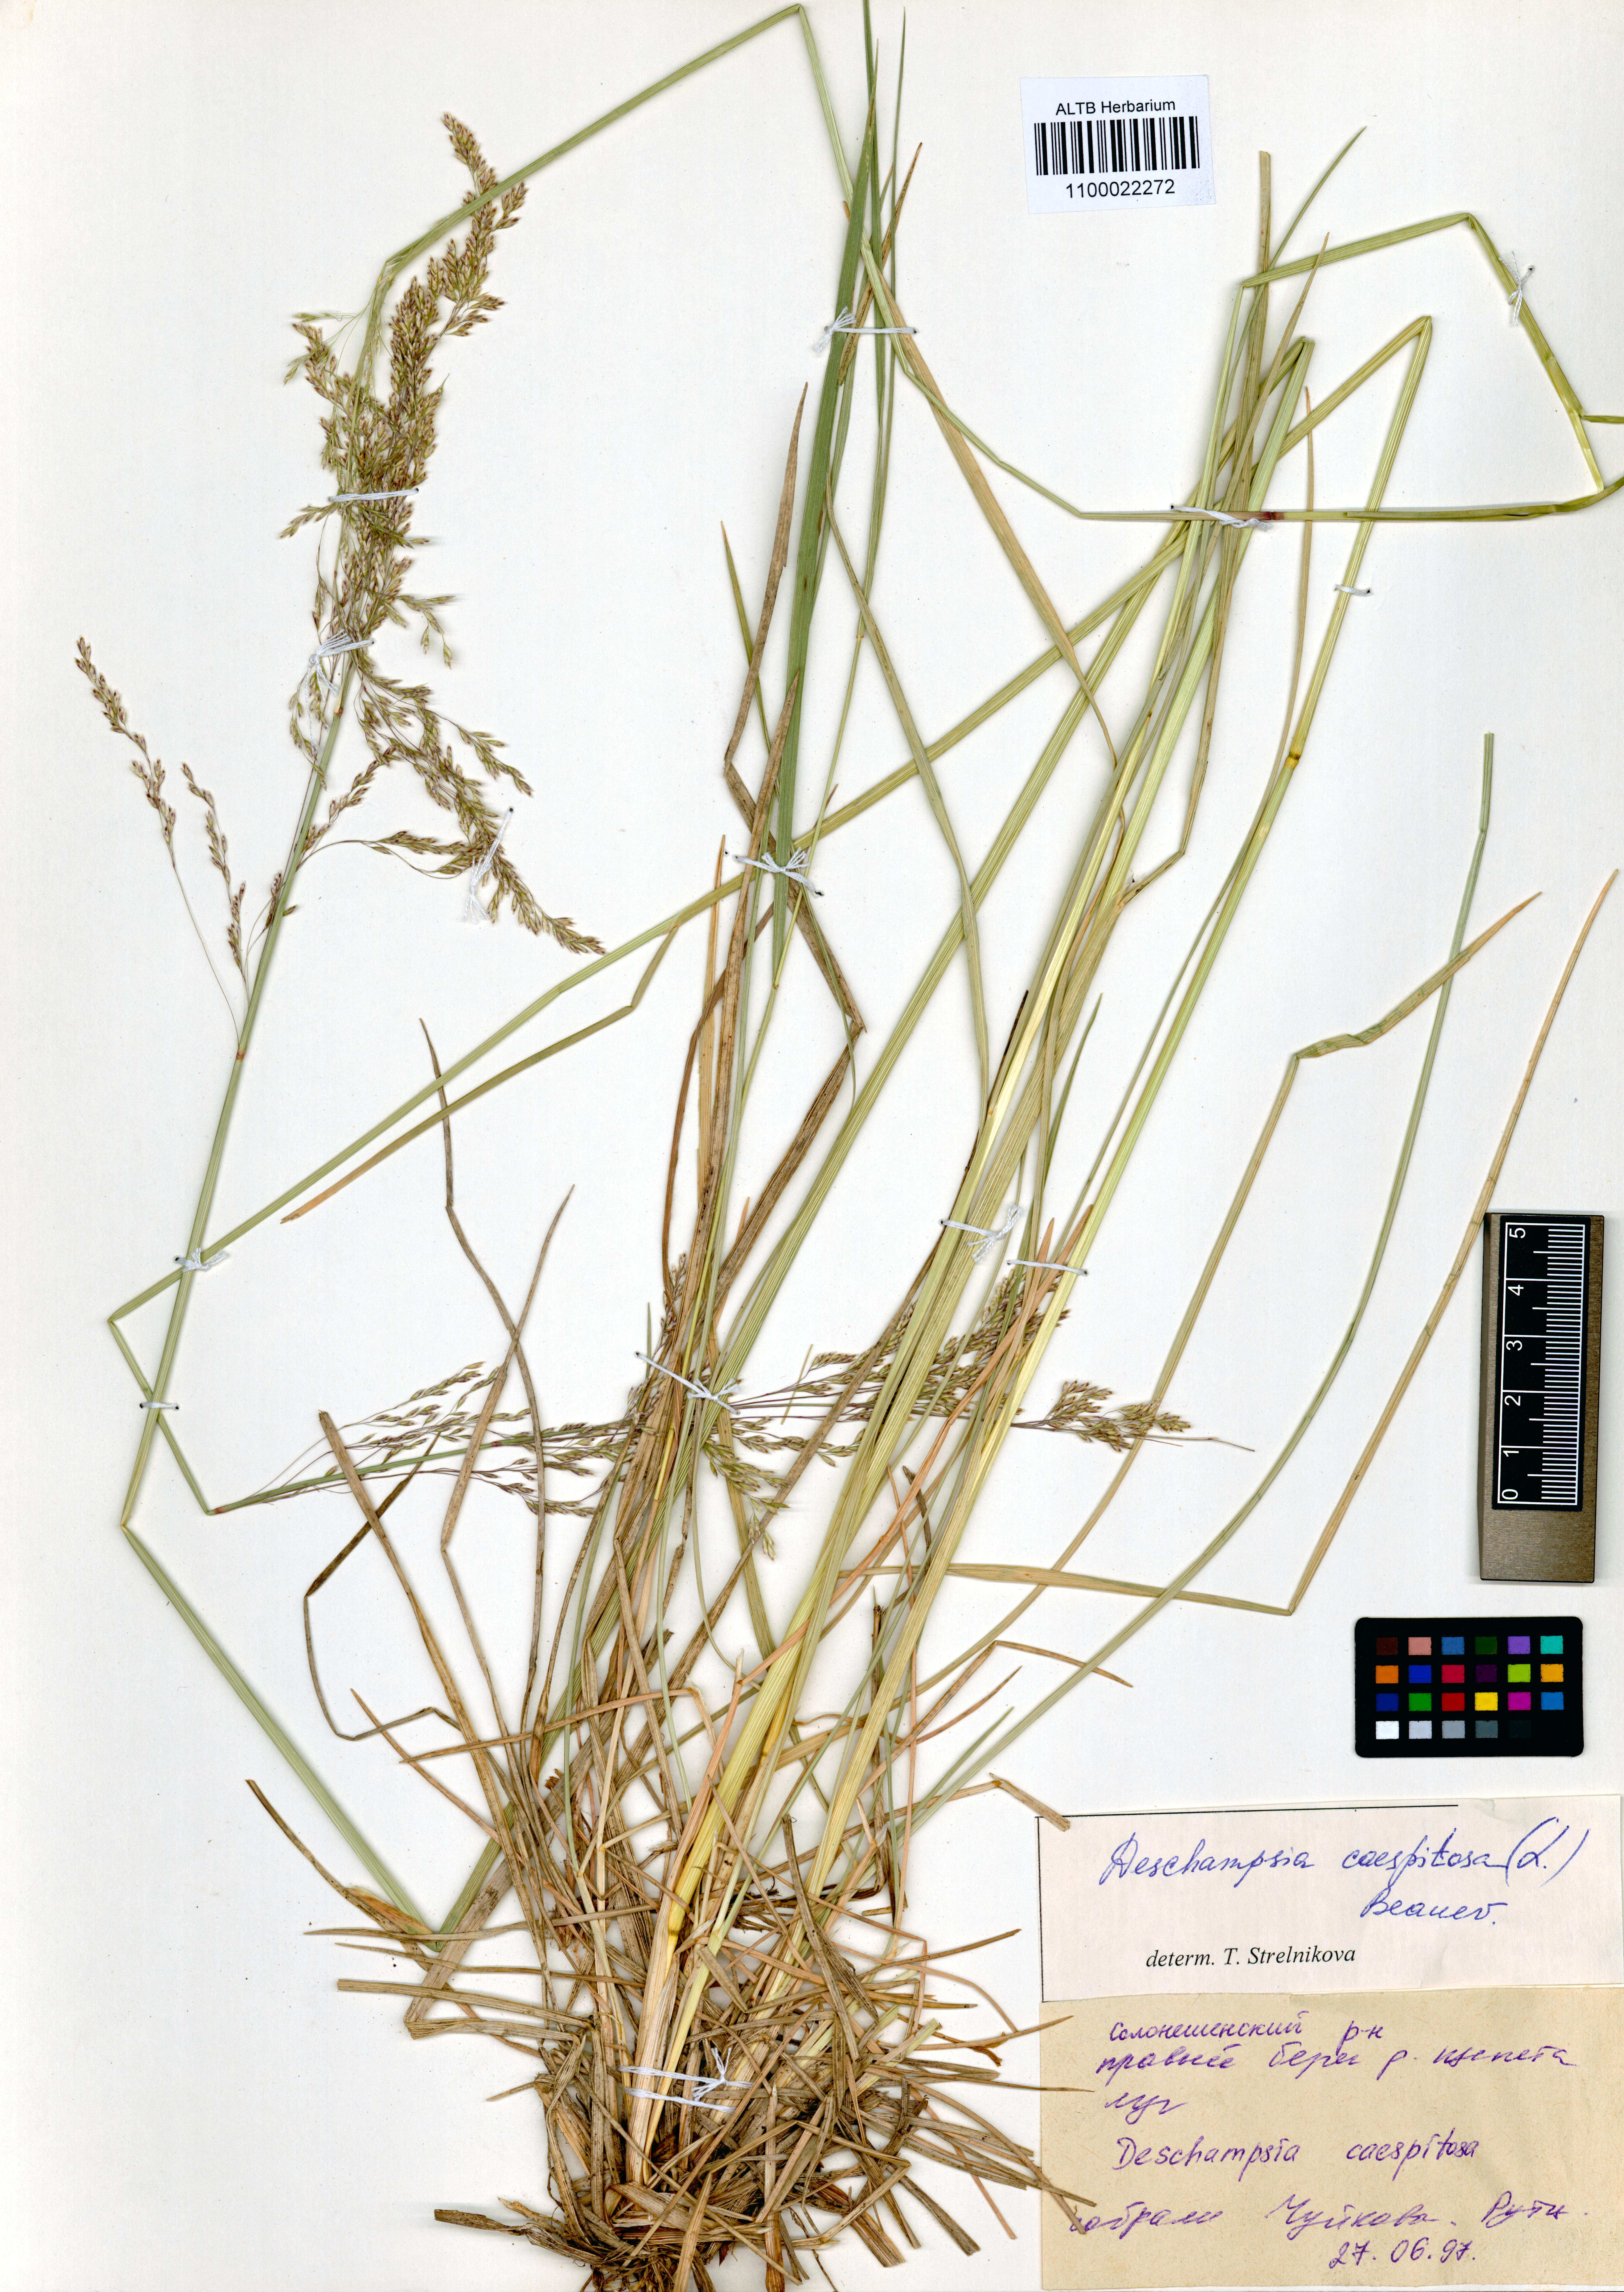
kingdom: Plantae
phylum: Tracheophyta
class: Liliopsida
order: Poales
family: Poaceae
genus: Deschampsia
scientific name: Deschampsia cespitosa
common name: Tufted hair-grass
